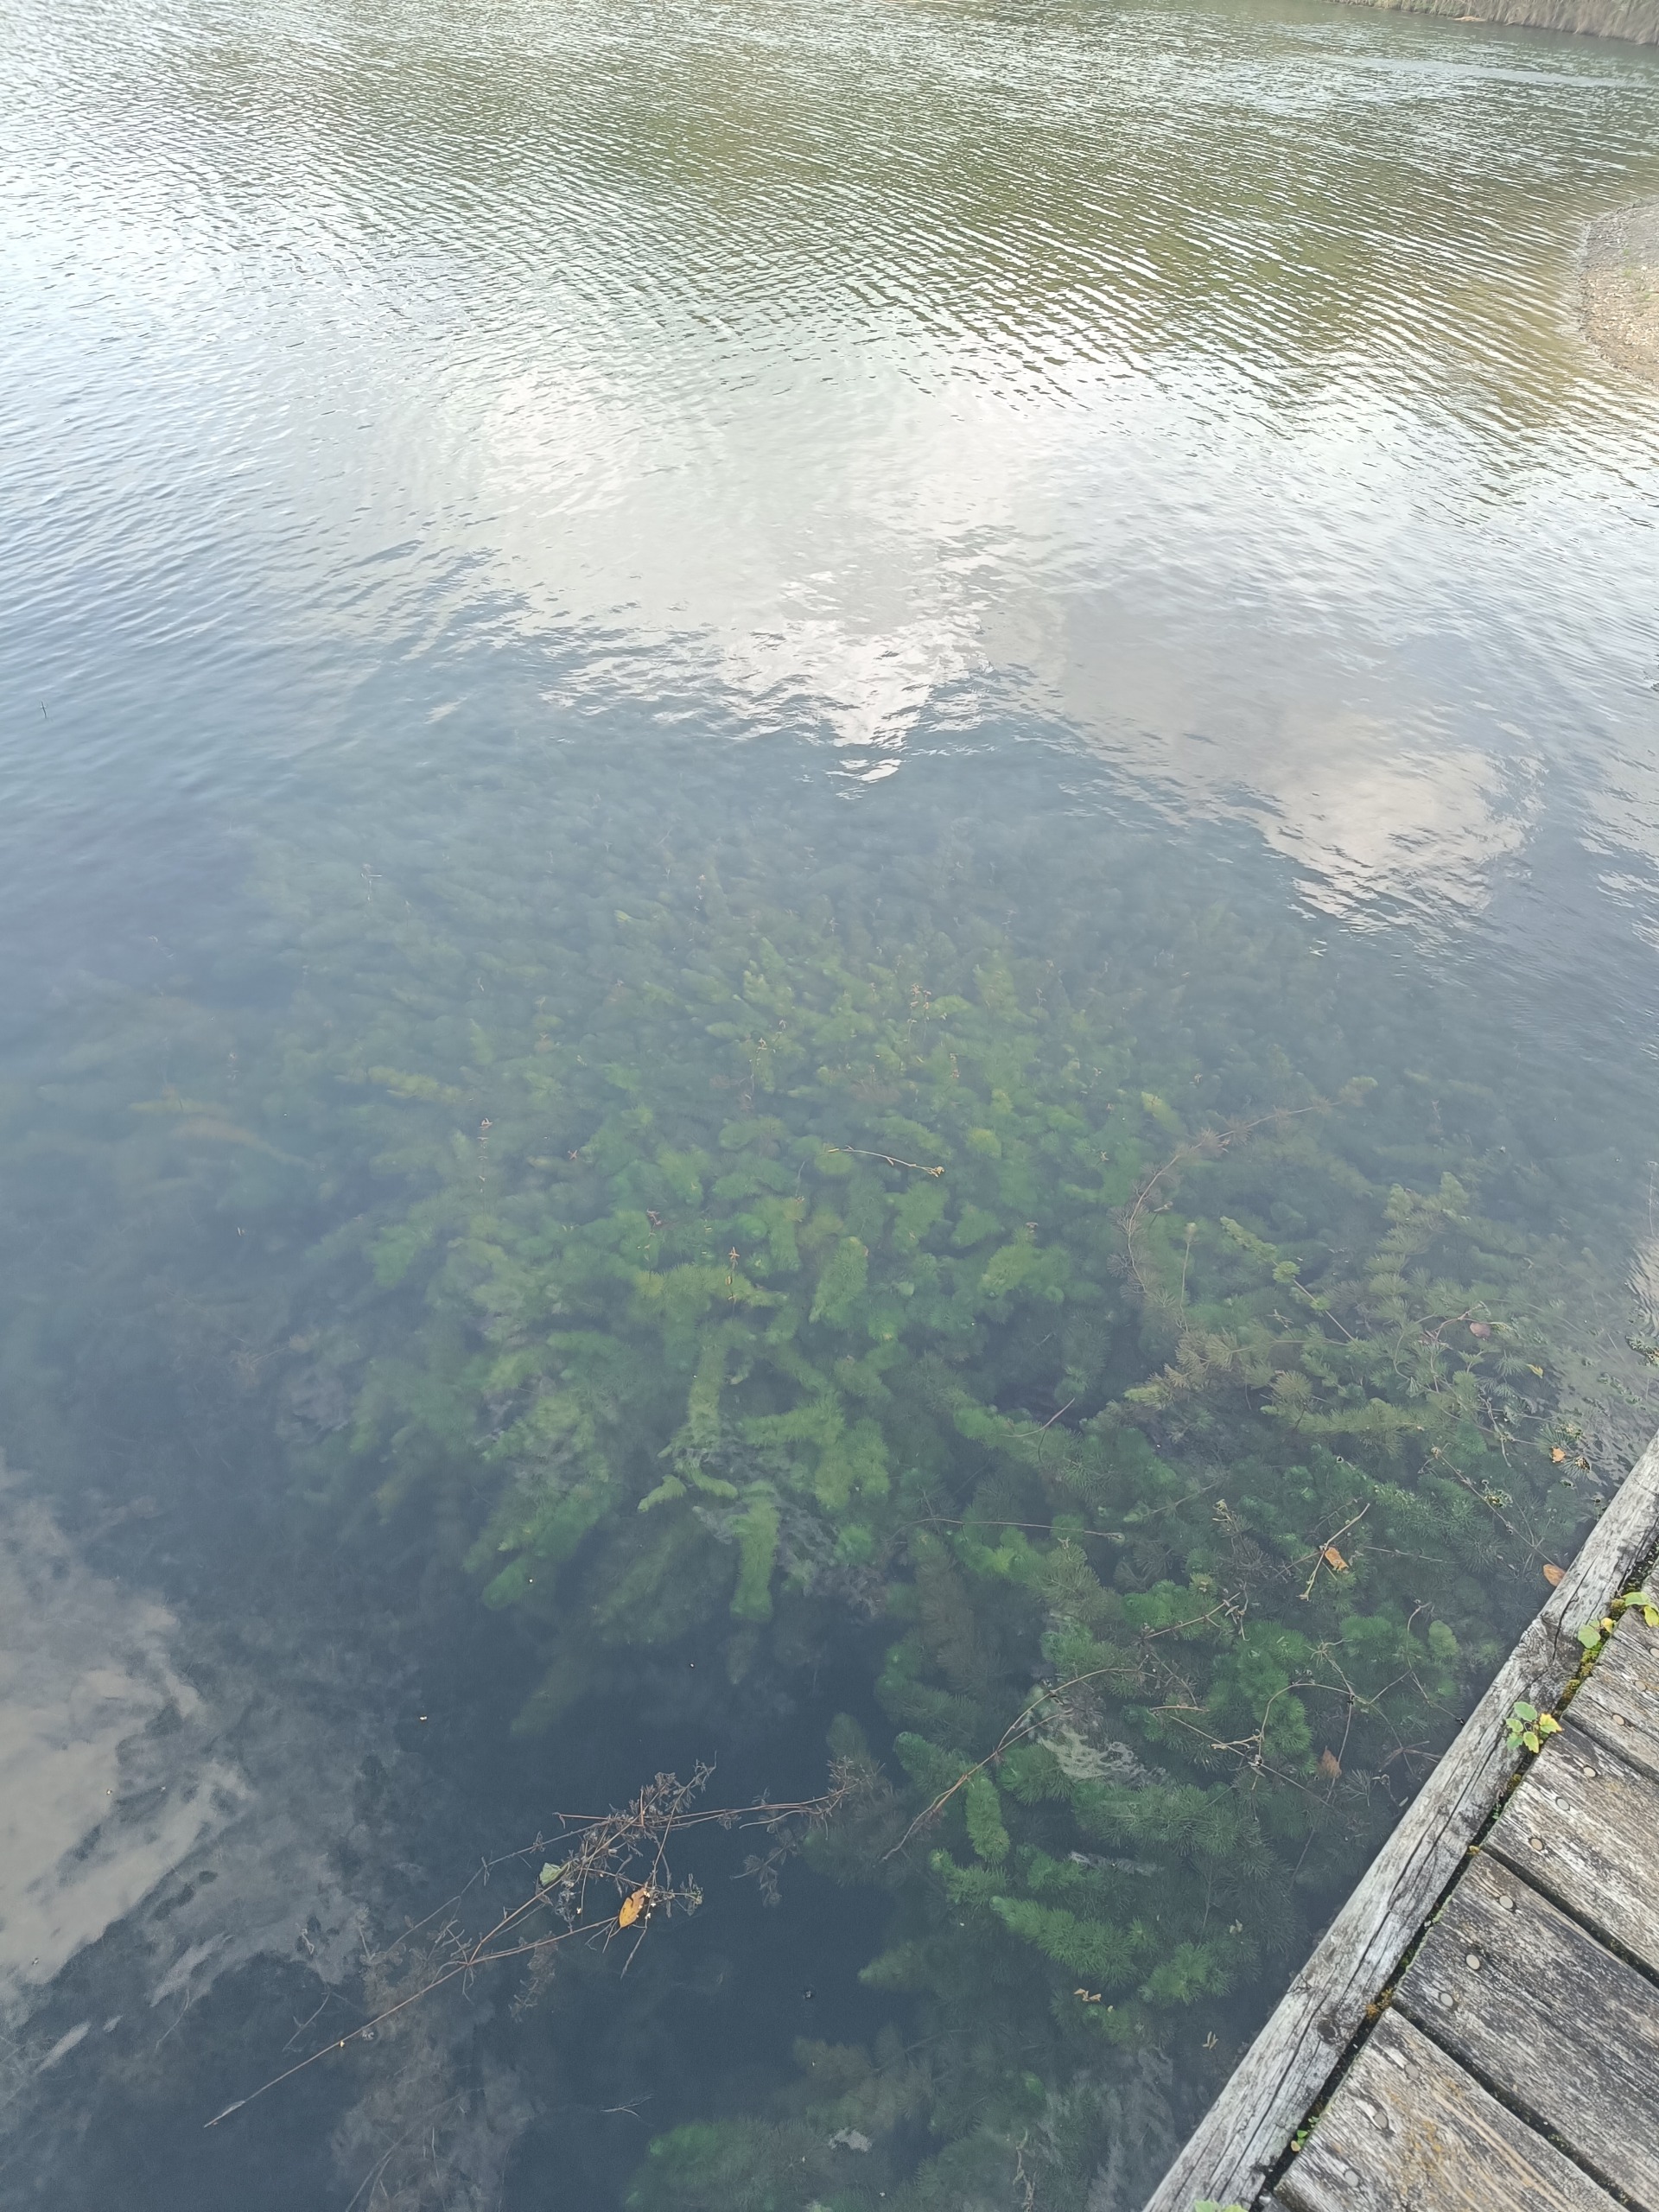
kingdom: Plantae
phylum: Tracheophyta
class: Magnoliopsida
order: Nymphaeales
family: Cabombaceae
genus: Cabomba
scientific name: Cabomba caroliniana
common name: Grøn cabomba
